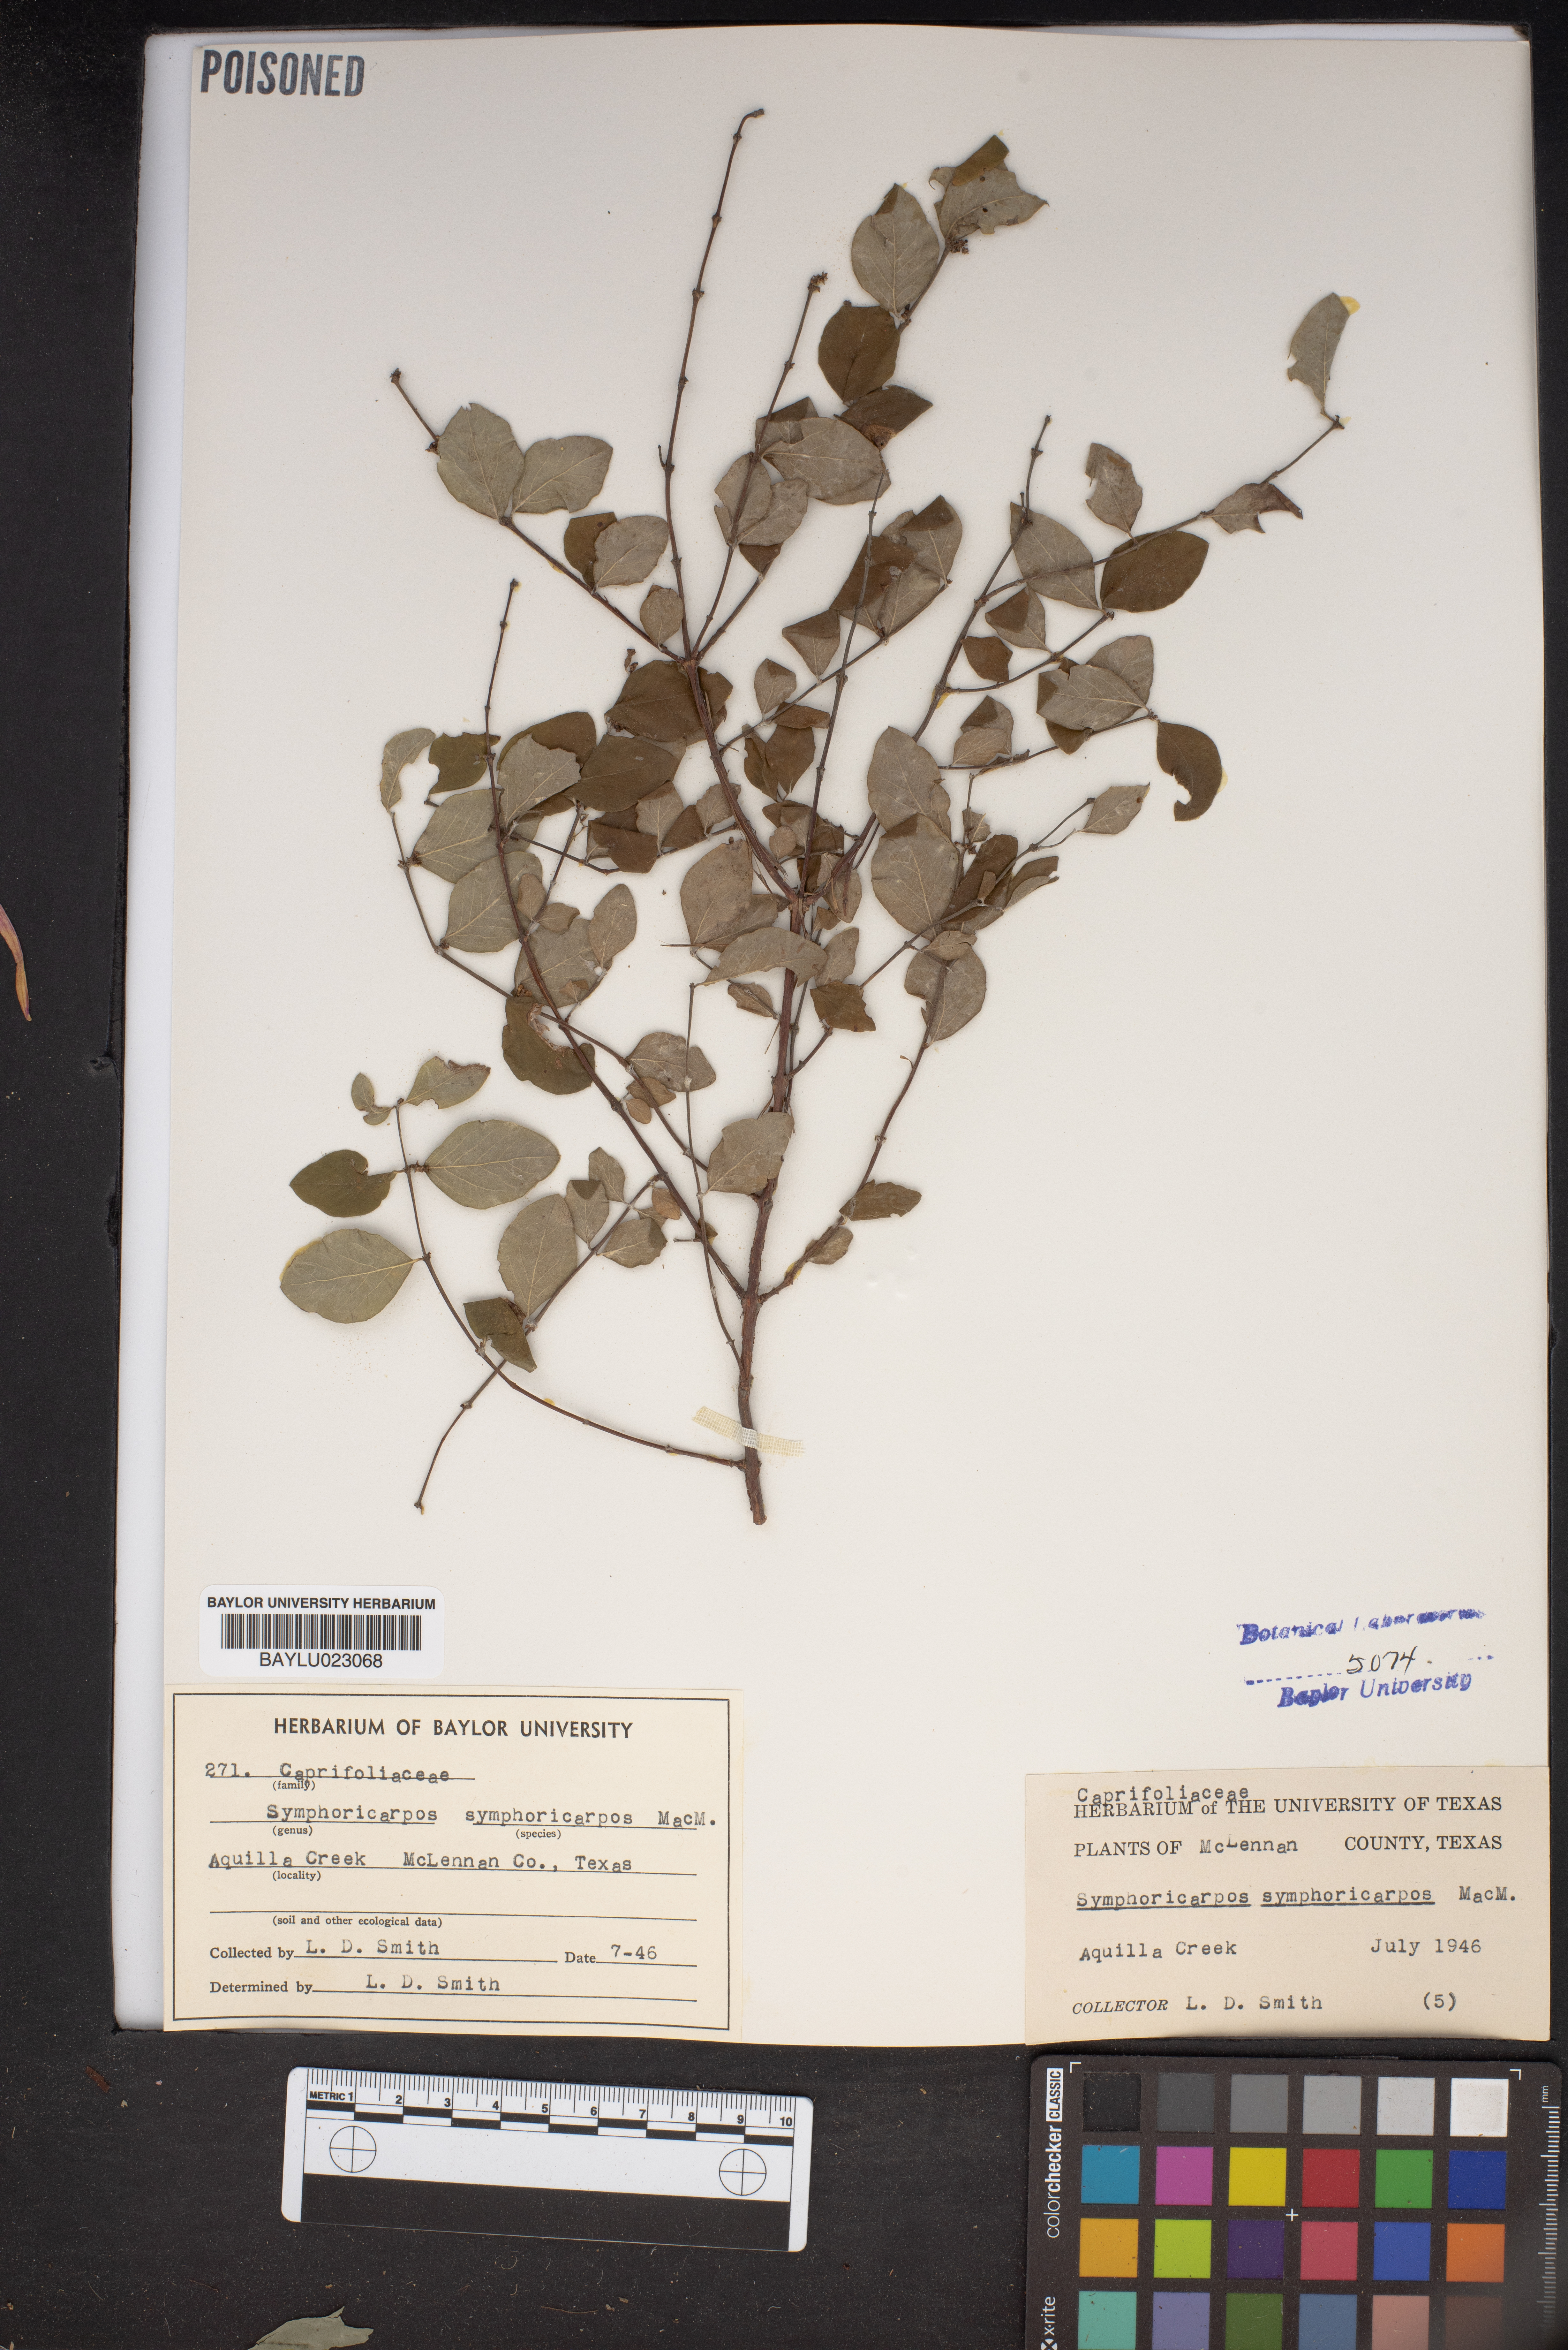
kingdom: Plantae
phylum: Tracheophyta
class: Magnoliopsida
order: Dipsacales
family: Caprifoliaceae
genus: Symphoricarpos
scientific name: Symphoricarpos orbiculatus
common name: Coralberry
